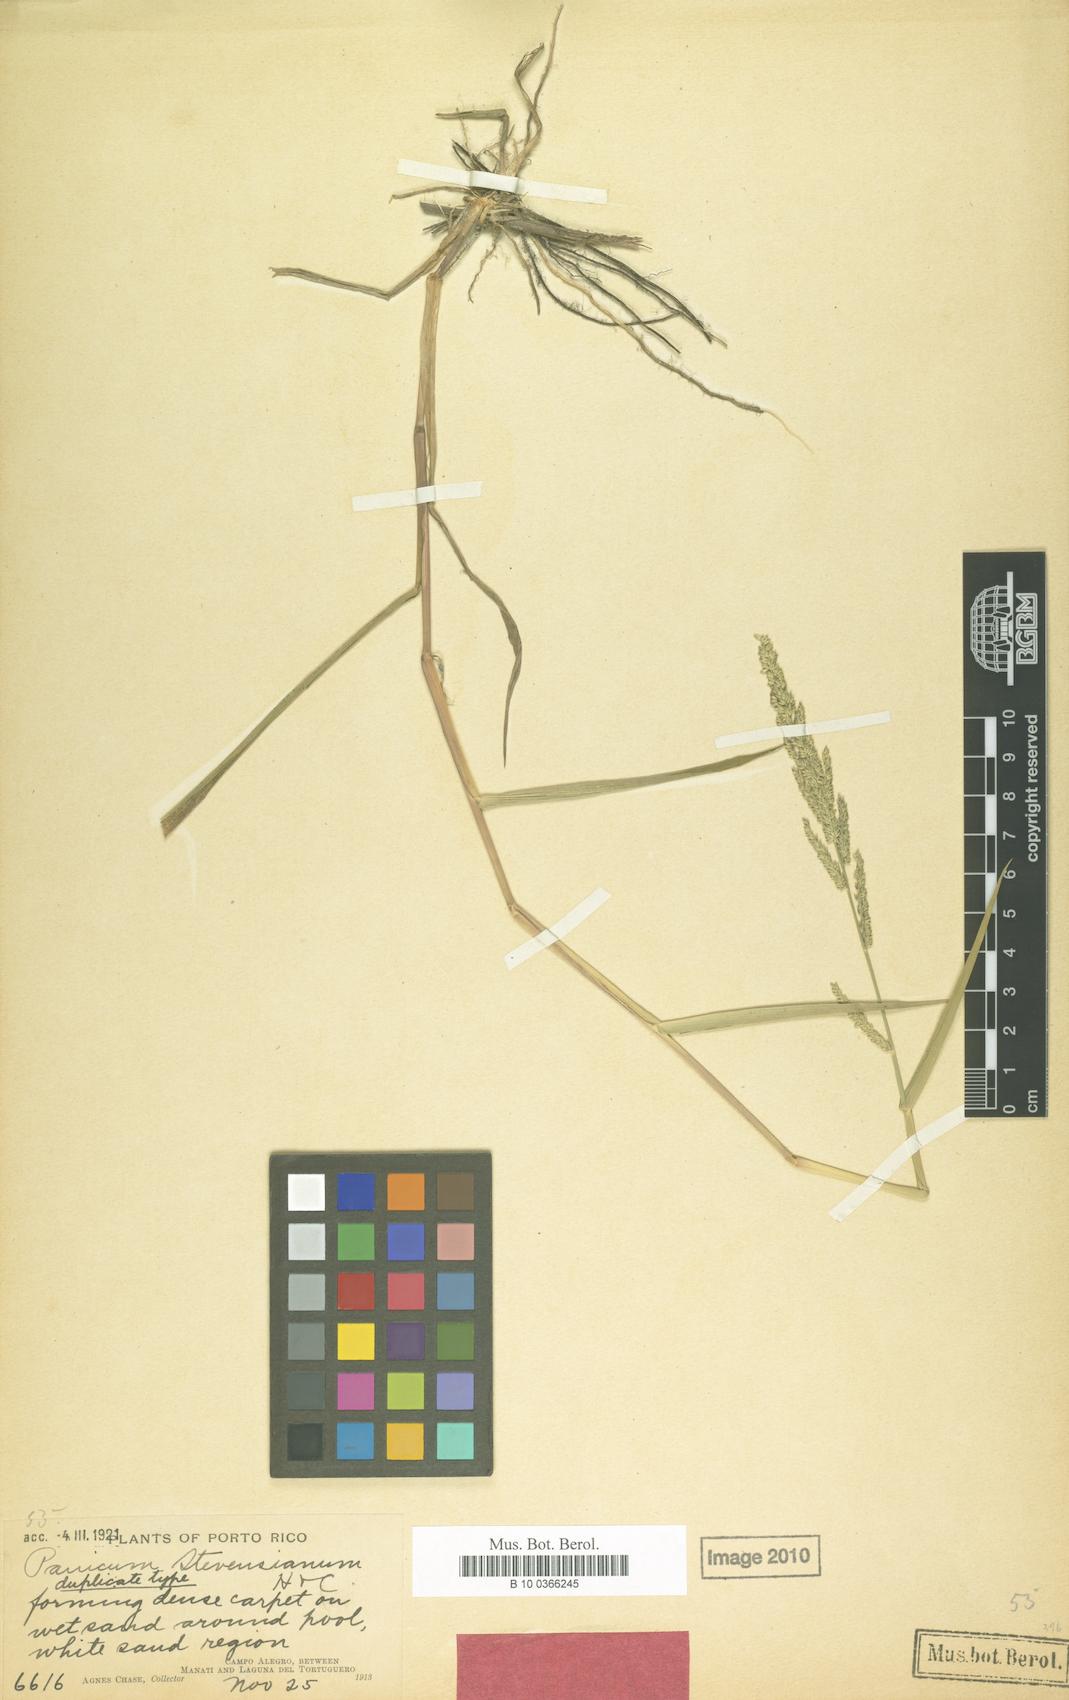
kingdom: Plantae
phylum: Tracheophyta
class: Liliopsida
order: Poales
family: Poaceae
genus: Panicum
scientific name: Panicum stevensianum
